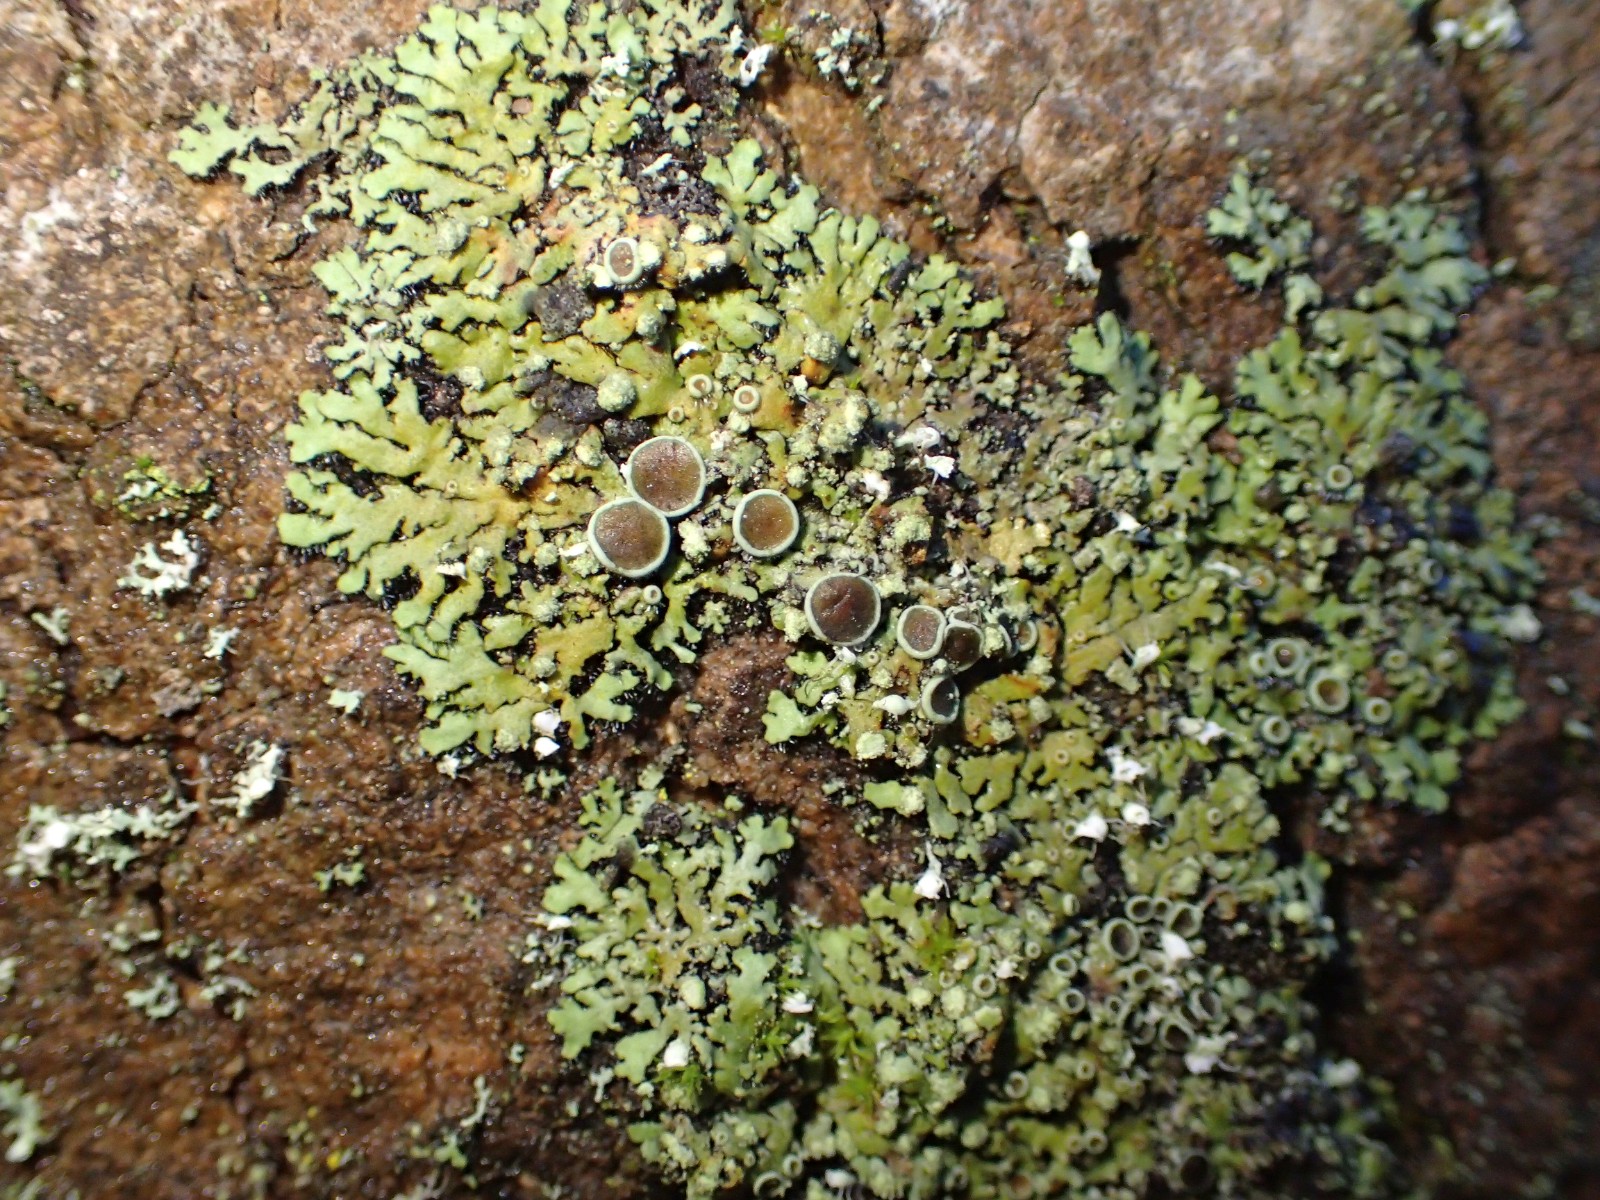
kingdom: Fungi
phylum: Ascomycota
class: Lecanoromycetes
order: Caliciales
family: Physciaceae
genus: Phaeophyscia
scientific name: Phaeophyscia orbicularis
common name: grågrøn rosetlav
